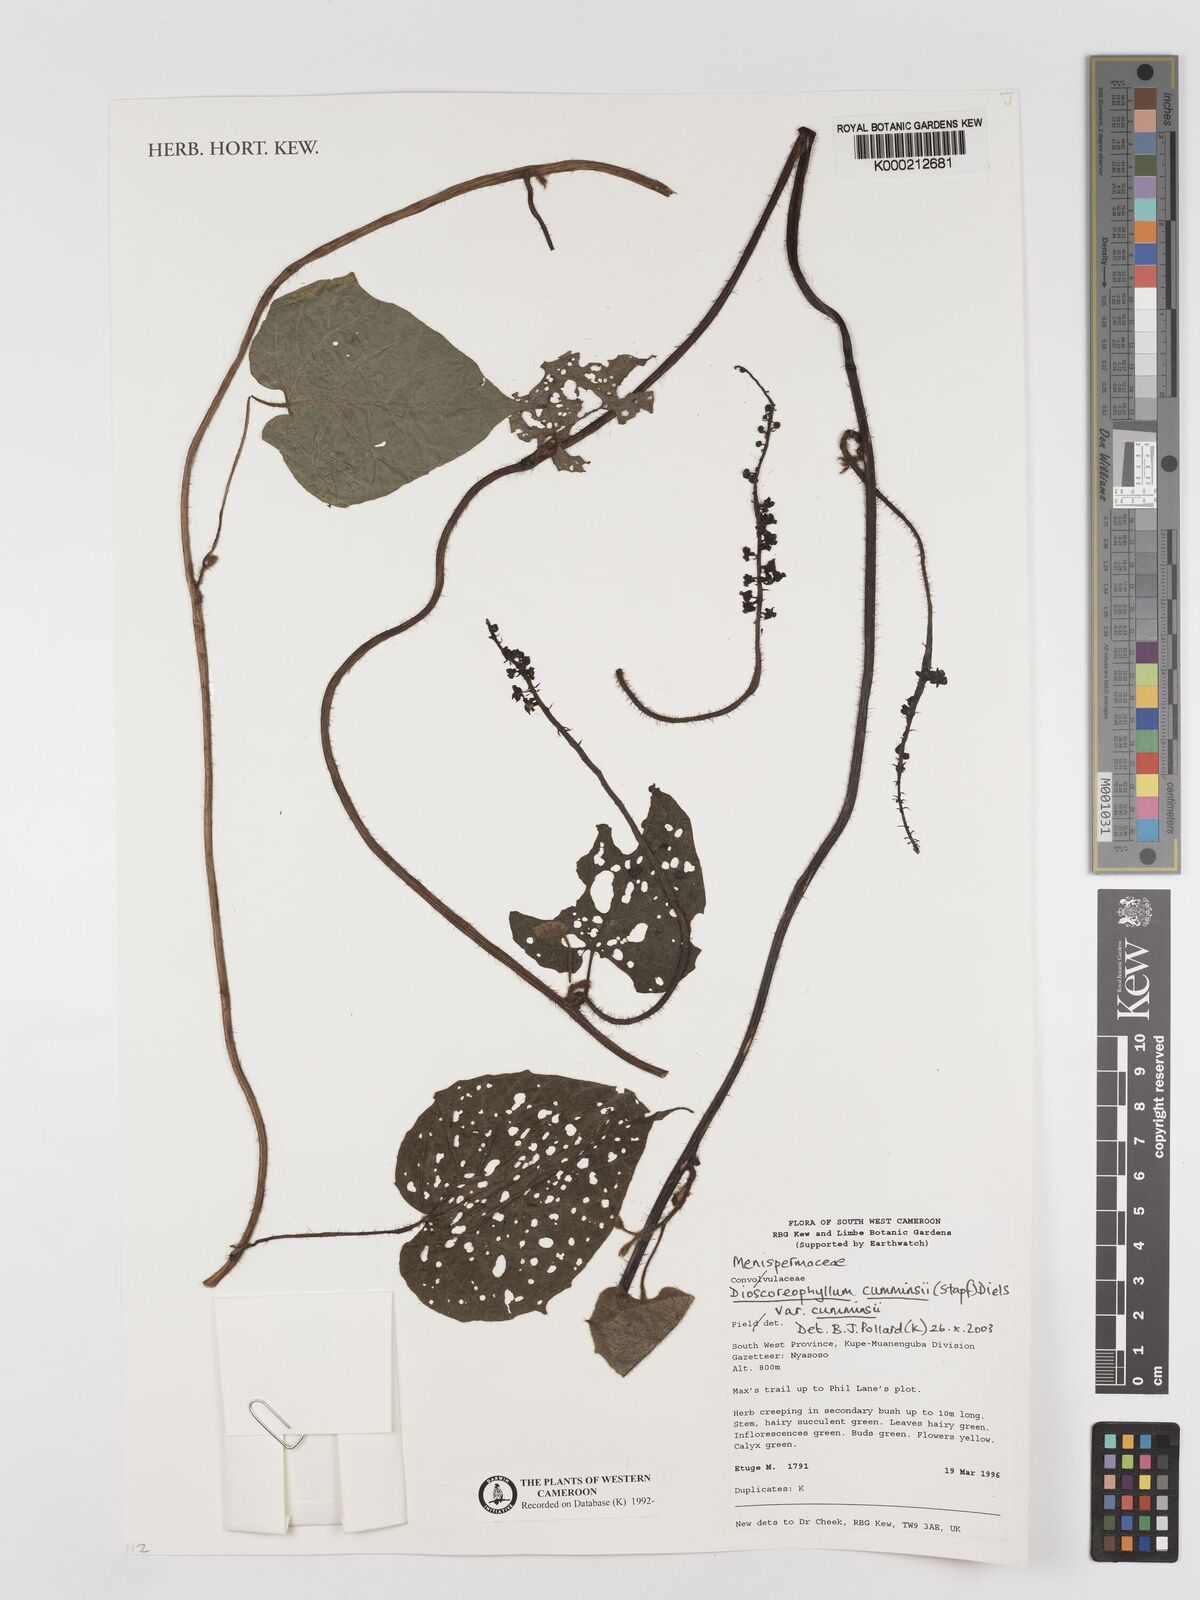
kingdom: Plantae
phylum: Tracheophyta
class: Magnoliopsida
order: Ranunculales
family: Menispermaceae
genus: Dioscoreophyllum
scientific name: Dioscoreophyllum volkensii
